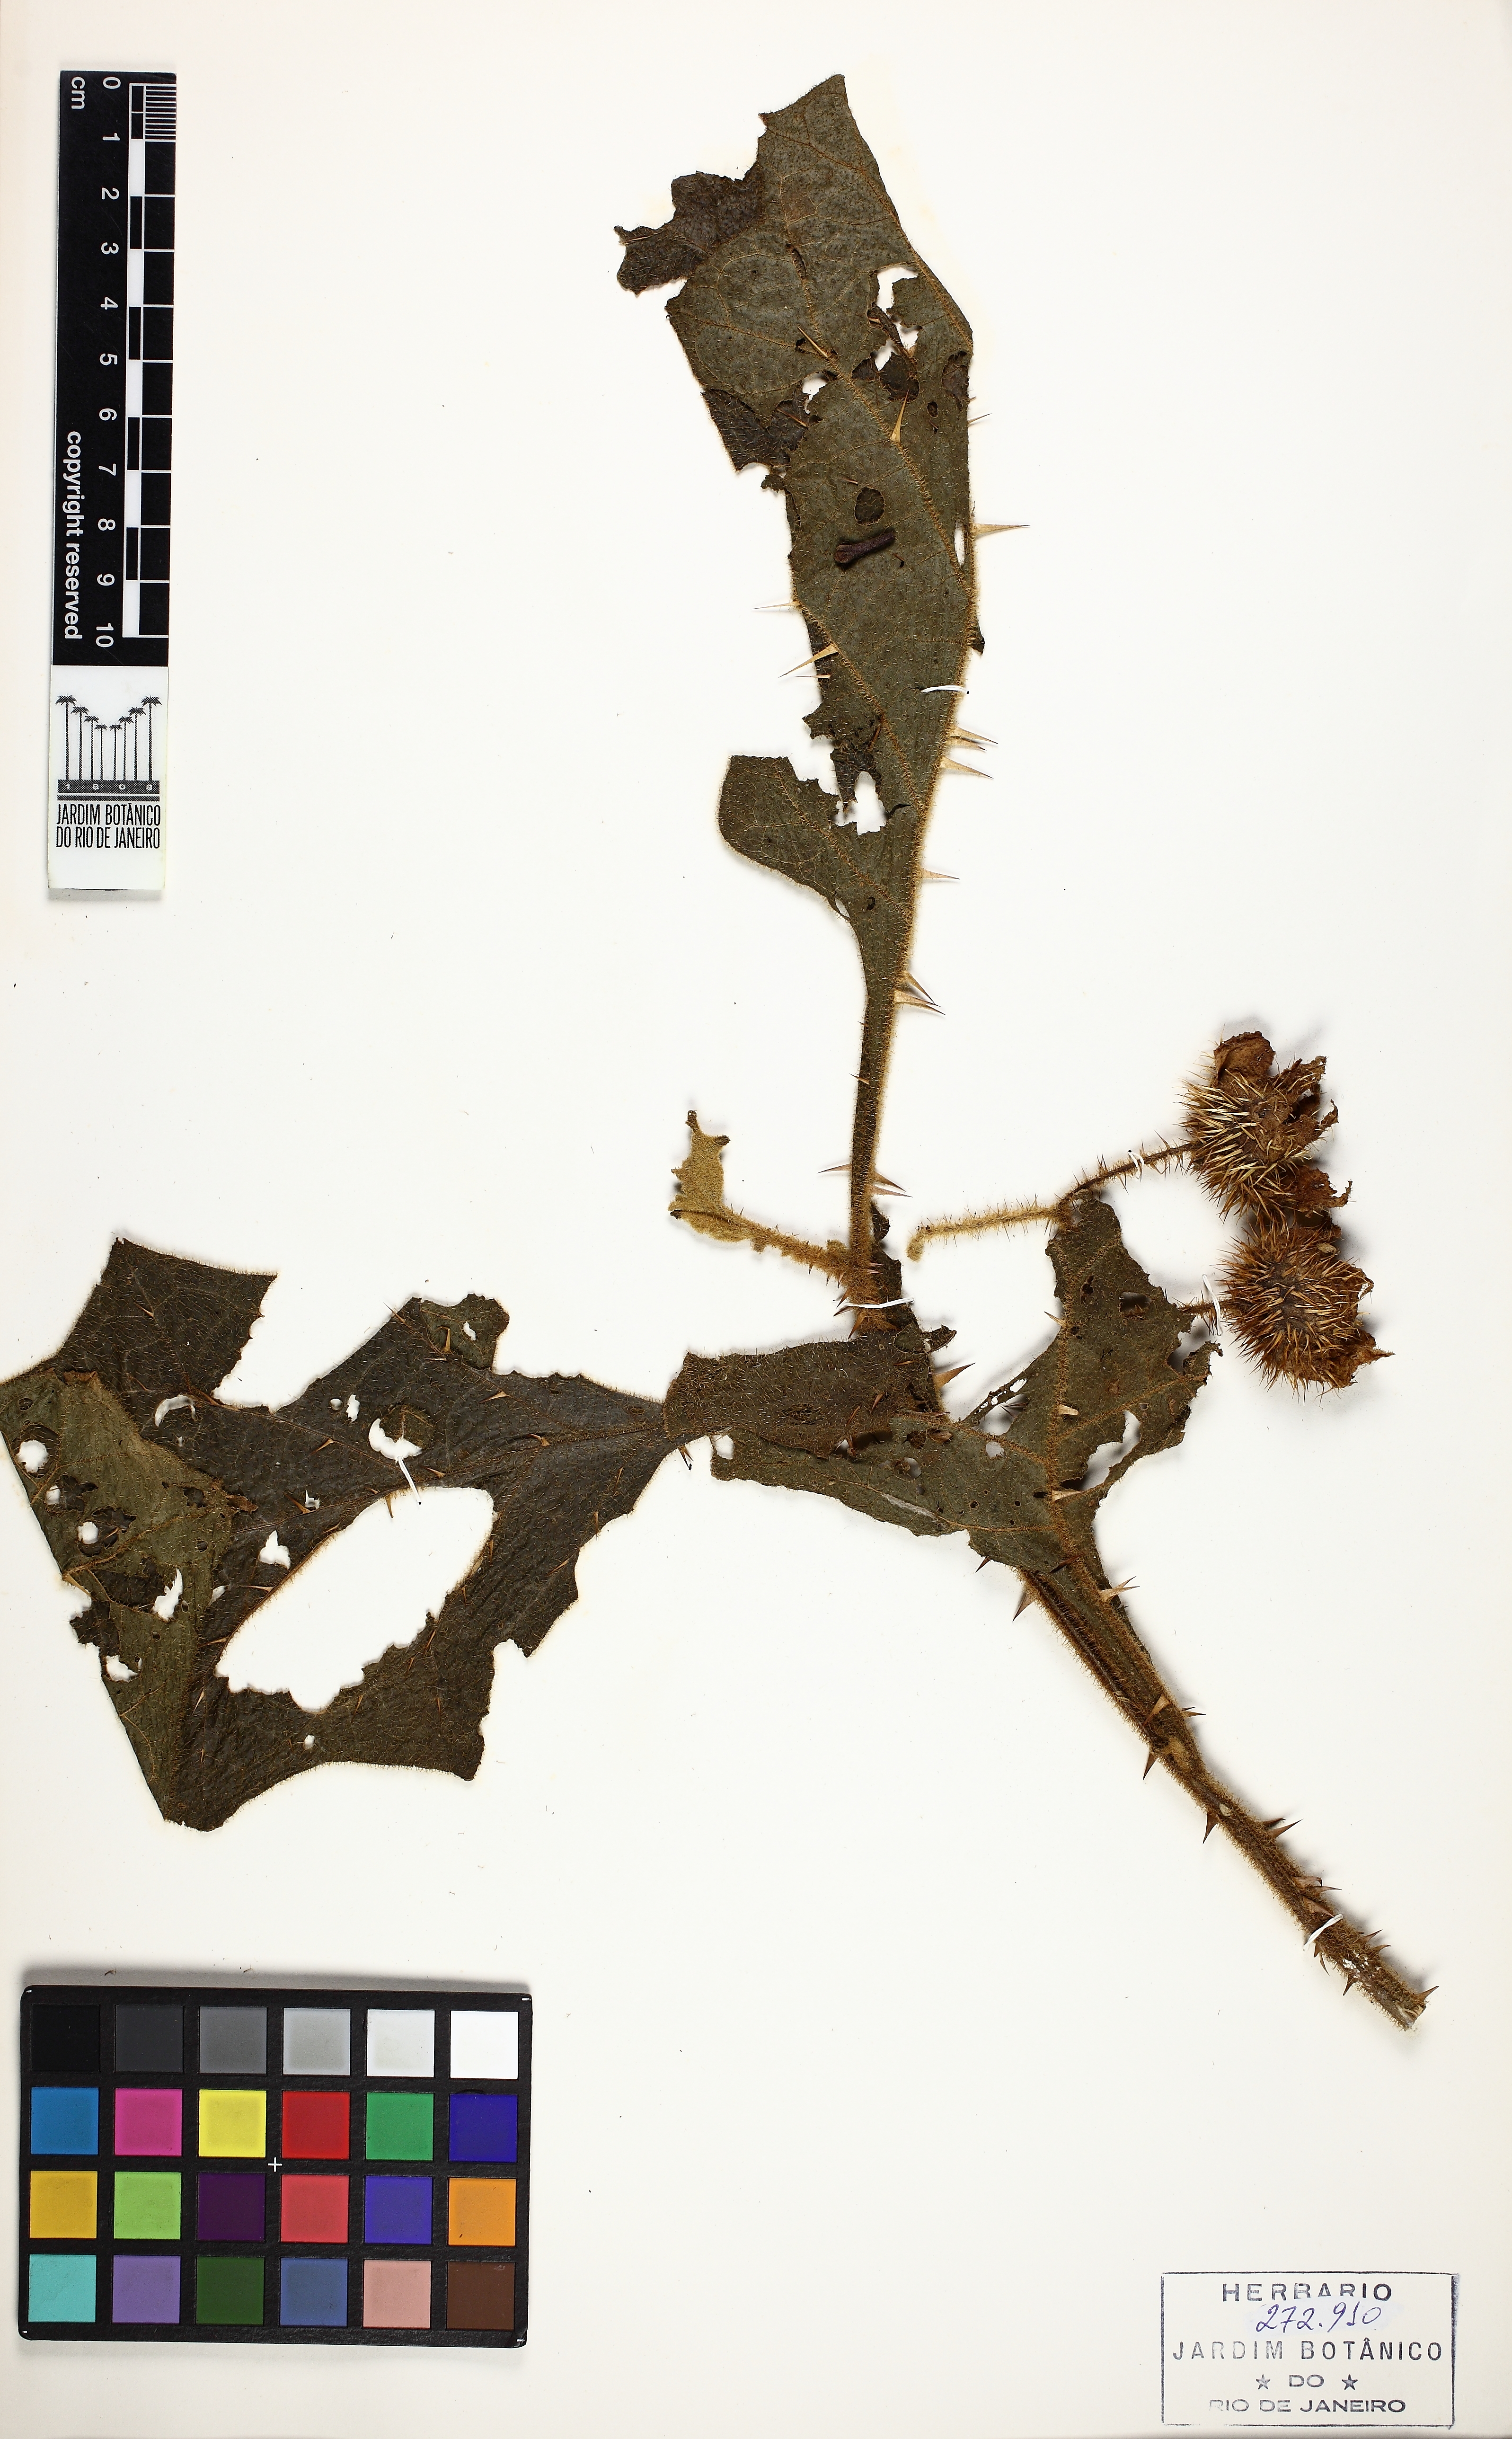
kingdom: Plantae
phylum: Tracheophyta
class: Magnoliopsida
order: Solanales
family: Solanaceae
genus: Solanum
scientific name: Solanum hexandrum
